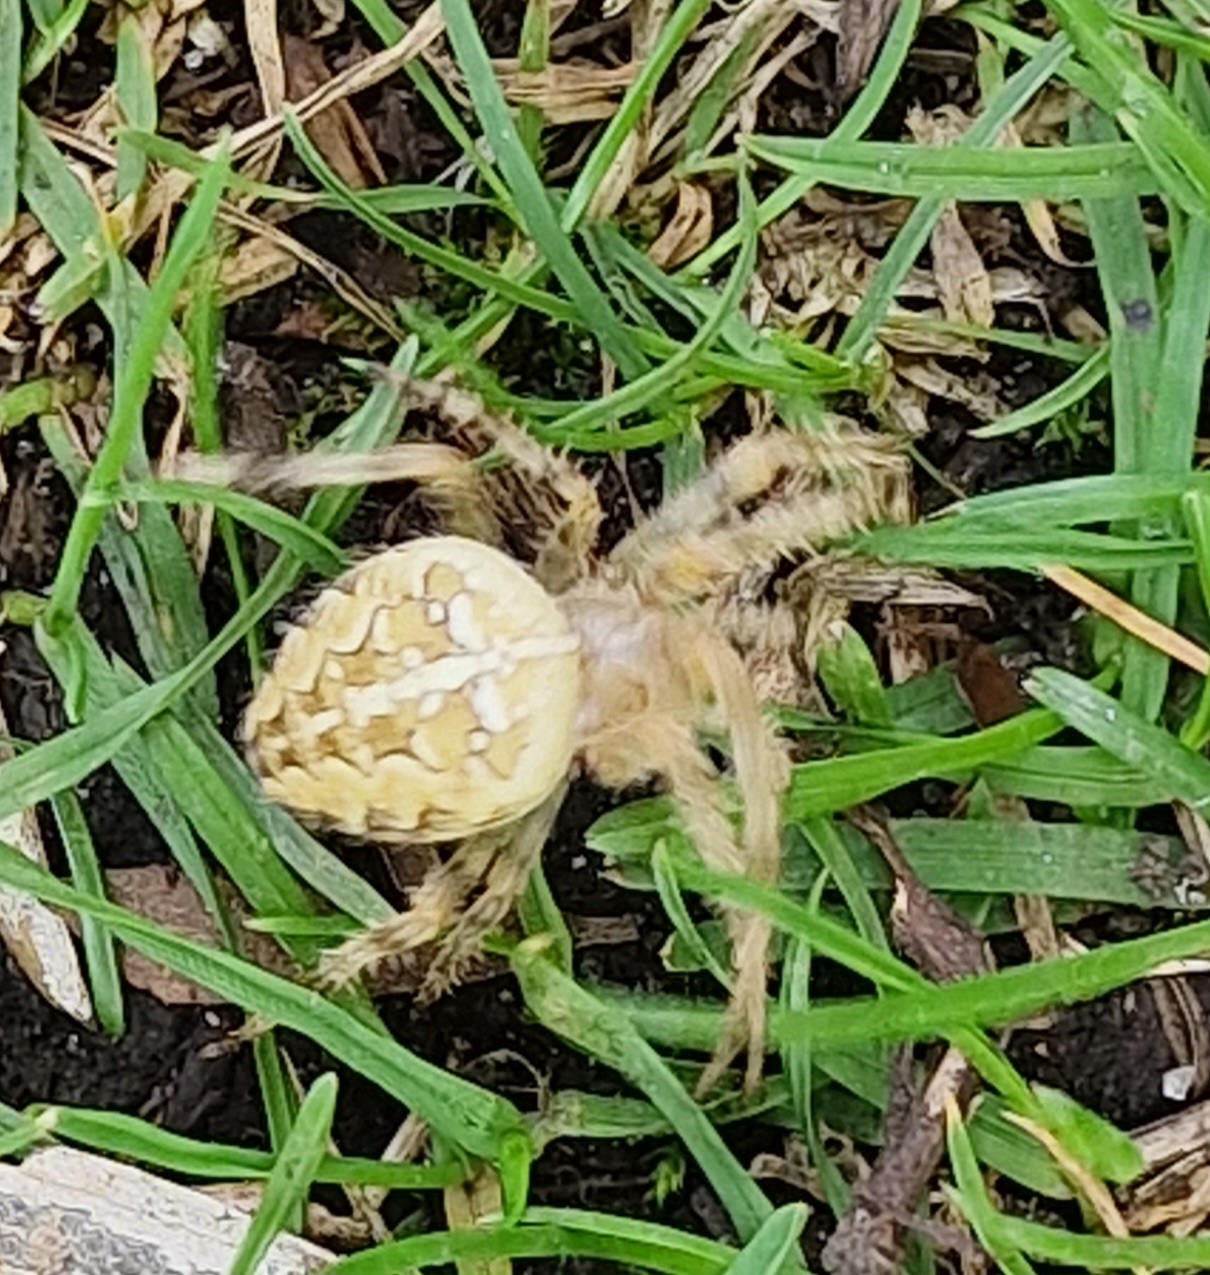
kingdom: Animalia
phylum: Arthropoda
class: Arachnida
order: Araneae
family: Araneidae
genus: Araneus
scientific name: Araneus diadematus
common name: Korsedderkop
